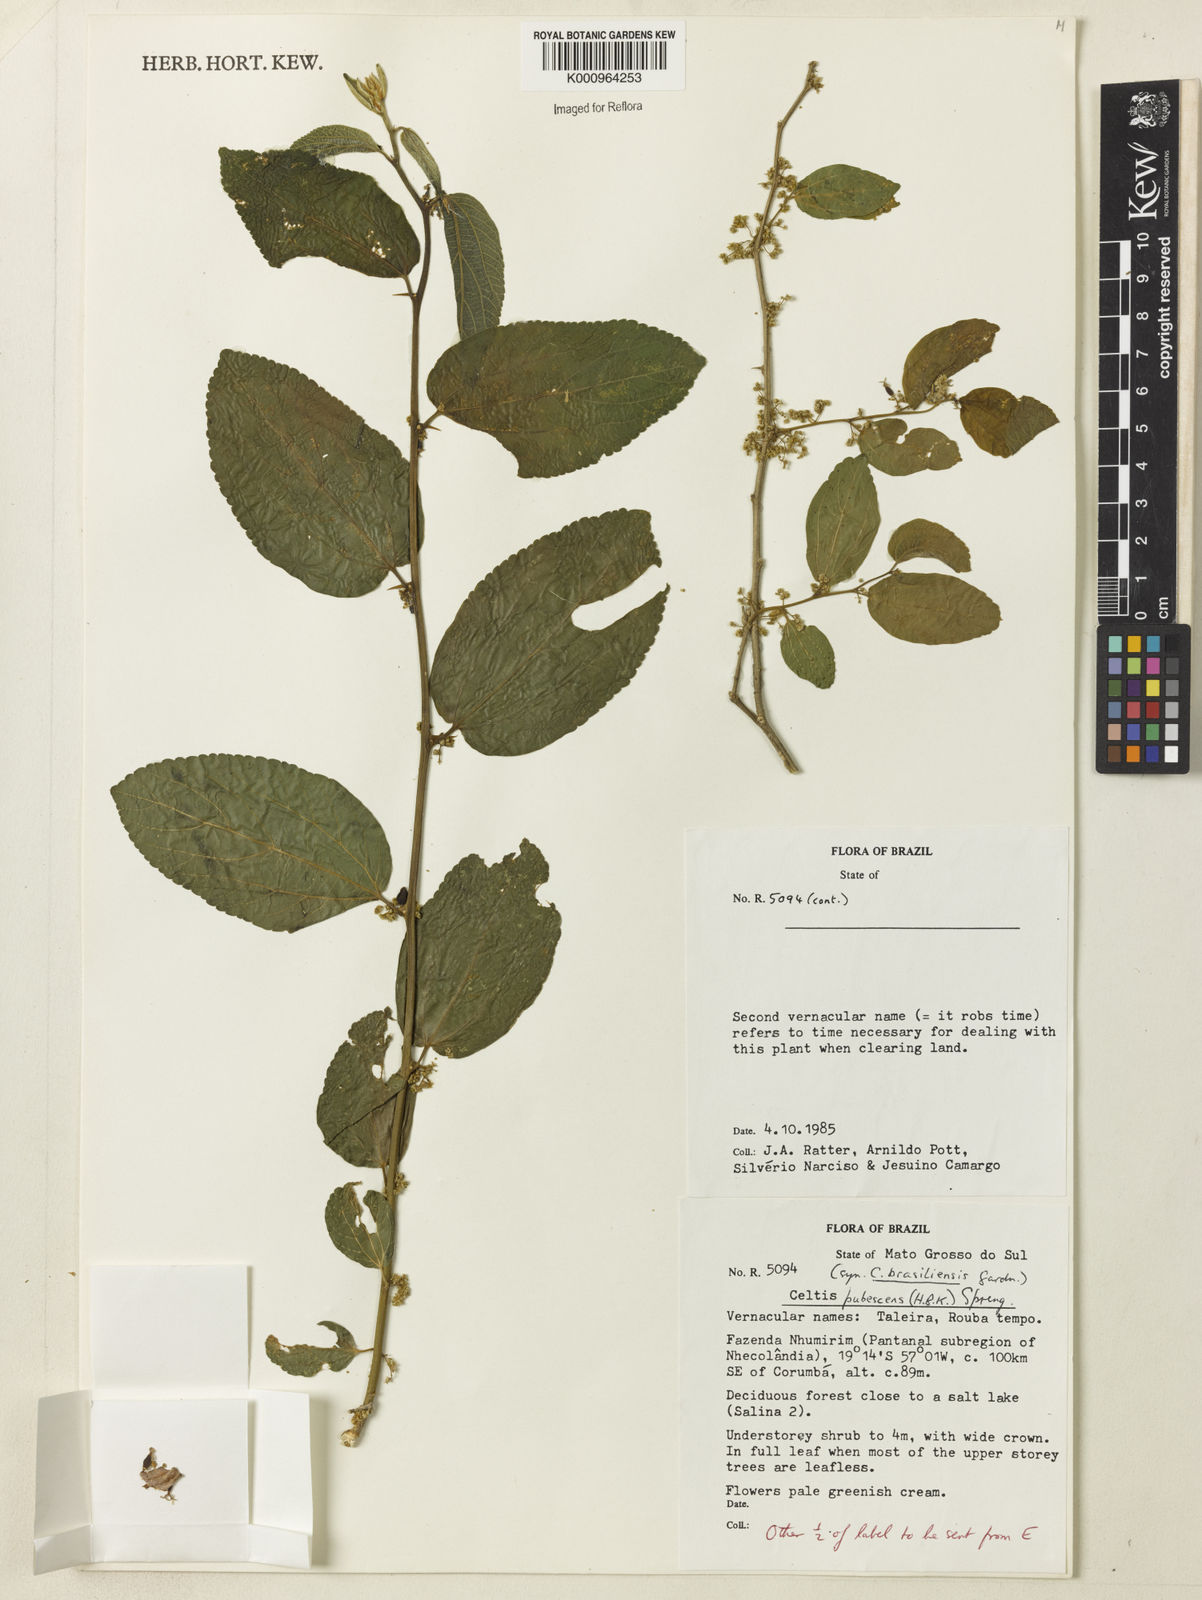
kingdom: Plantae
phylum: Tracheophyta
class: Magnoliopsida
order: Rosales
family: Cannabaceae
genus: Celtis
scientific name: Celtis iguanaea
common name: Iguana hackberry
